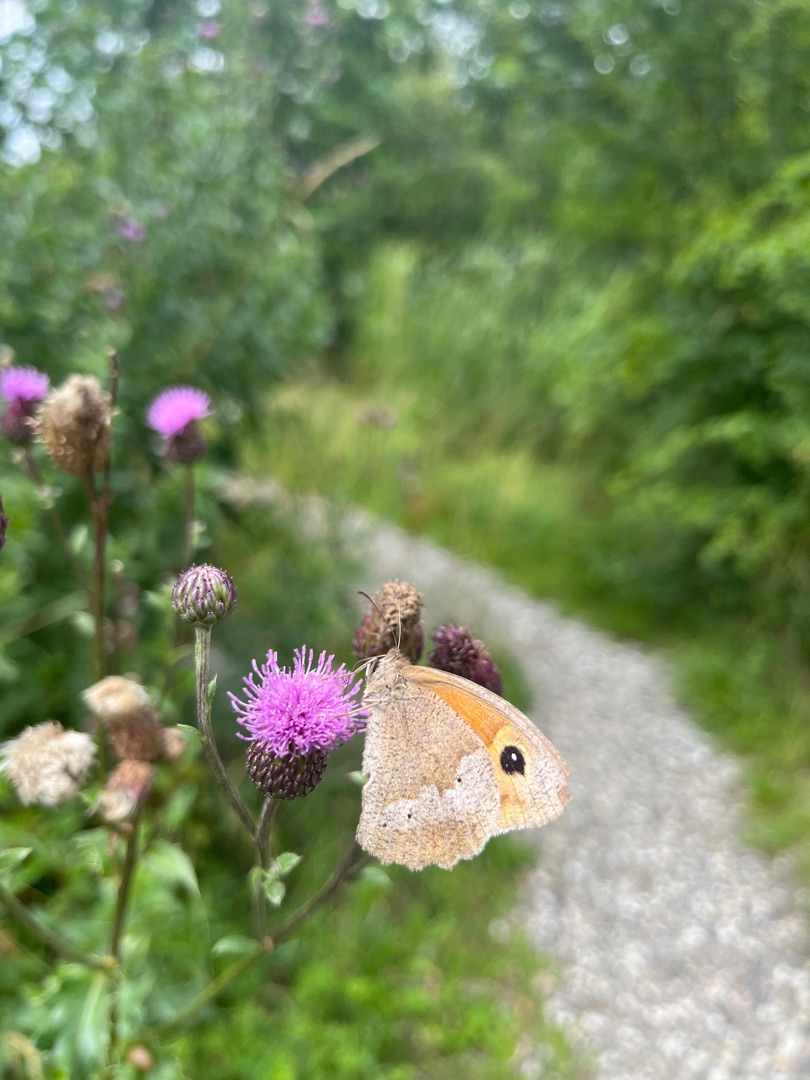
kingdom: Animalia
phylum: Arthropoda
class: Insecta
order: Lepidoptera
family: Nymphalidae
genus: Maniola
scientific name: Maniola jurtina
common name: Græsrandøje
